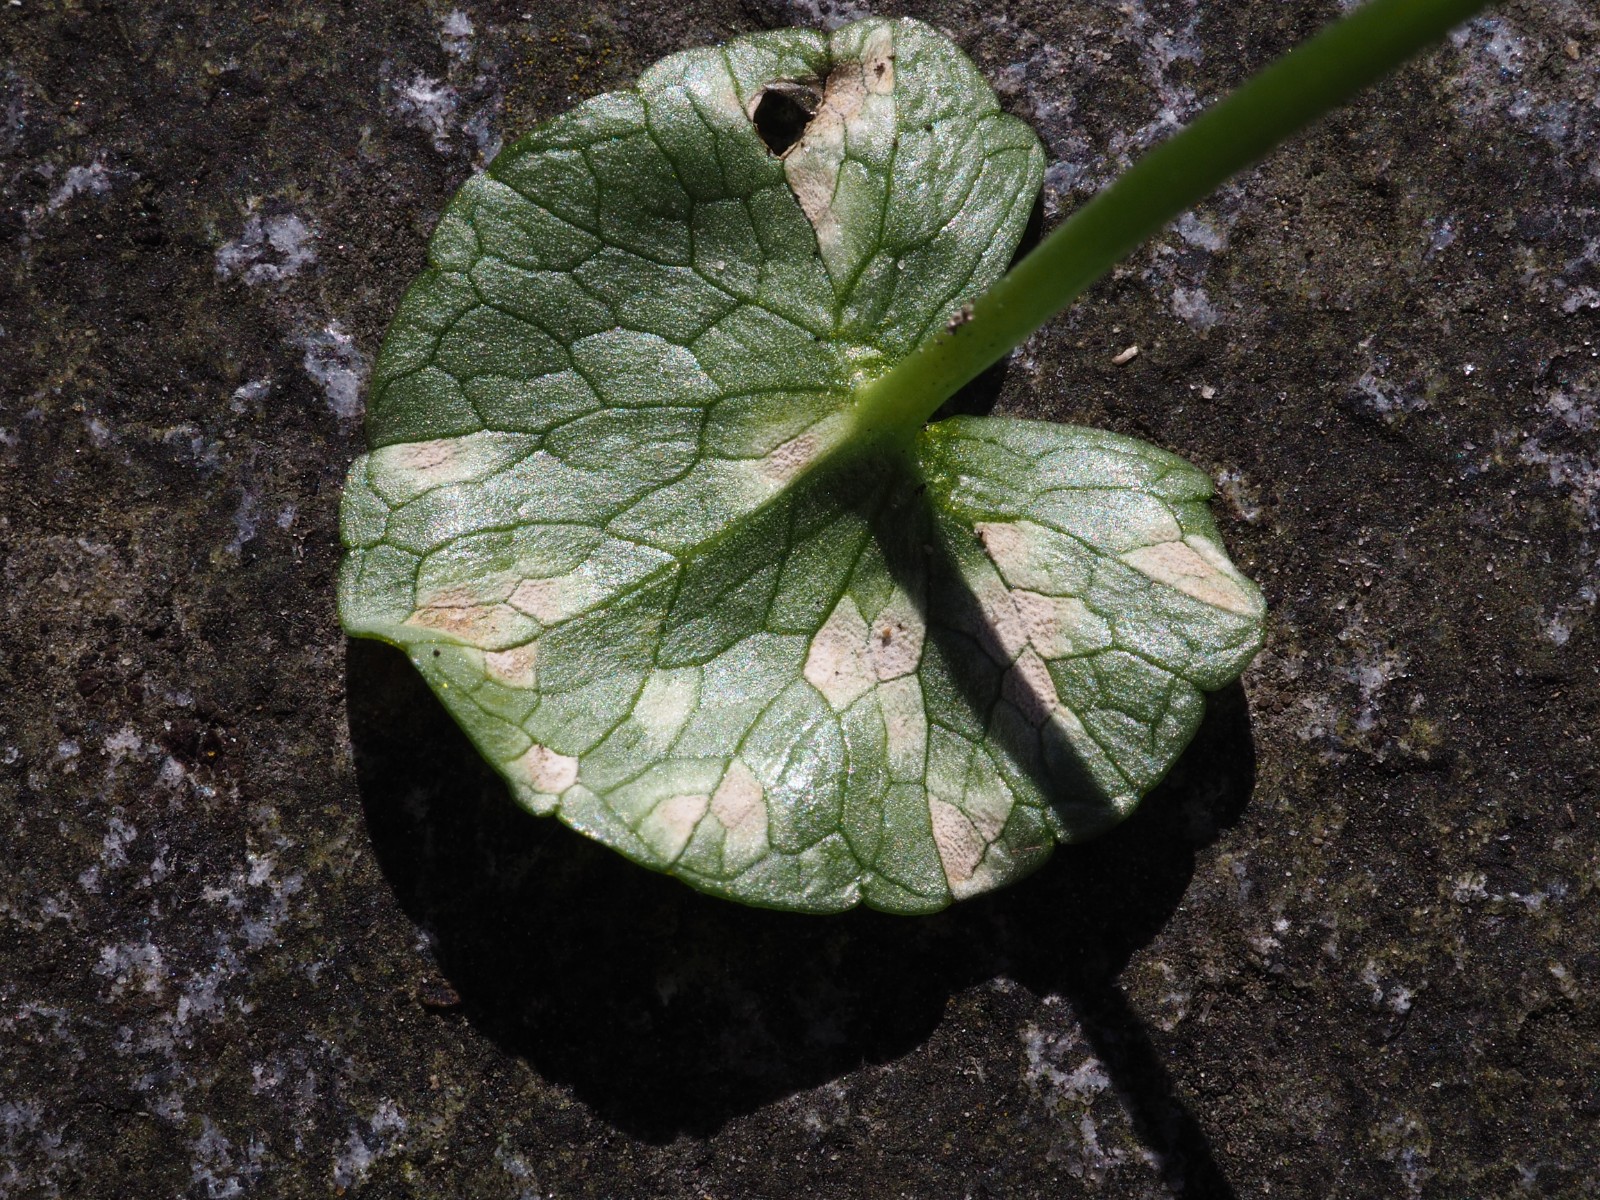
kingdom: Chromista
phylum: Oomycota
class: Peronosporea
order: Peronosporales
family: Peronosporaceae
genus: Peronospora
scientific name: Peronospora ficariae
